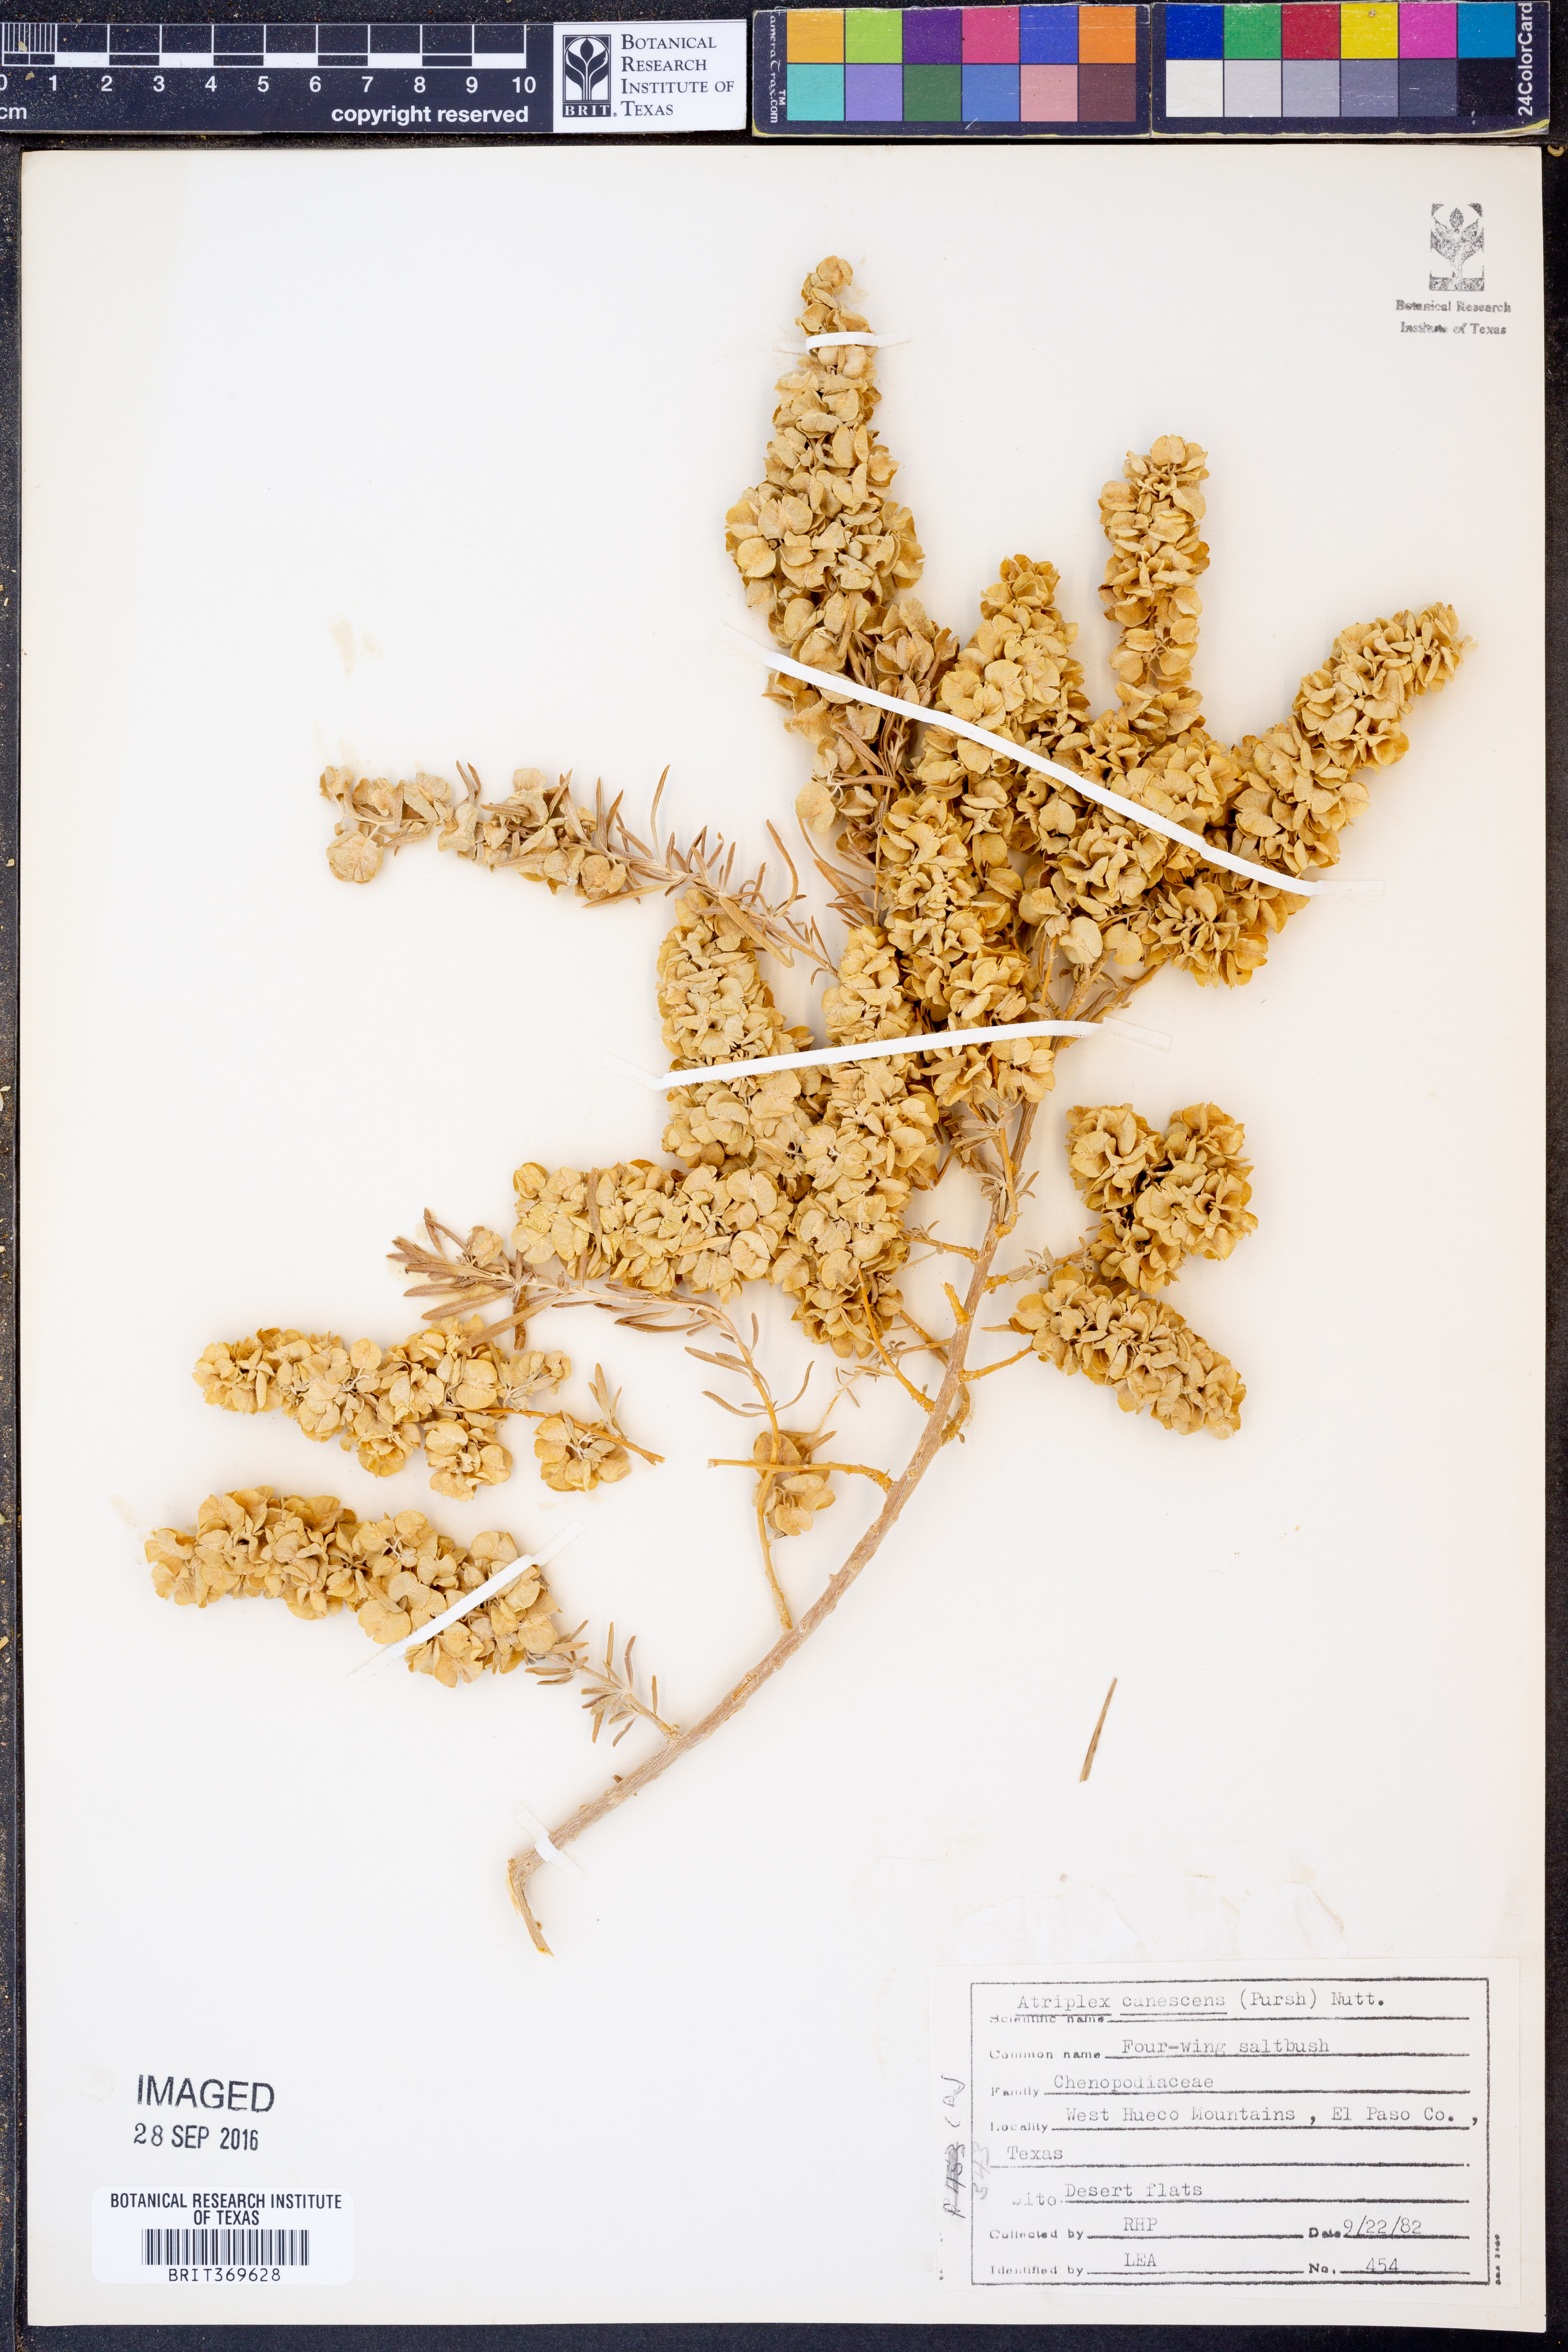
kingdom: Plantae
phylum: Tracheophyta
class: Magnoliopsida
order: Caryophyllales
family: Amaranthaceae
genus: Atriplex
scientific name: Atriplex canescens
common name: Four-wing saltbush
